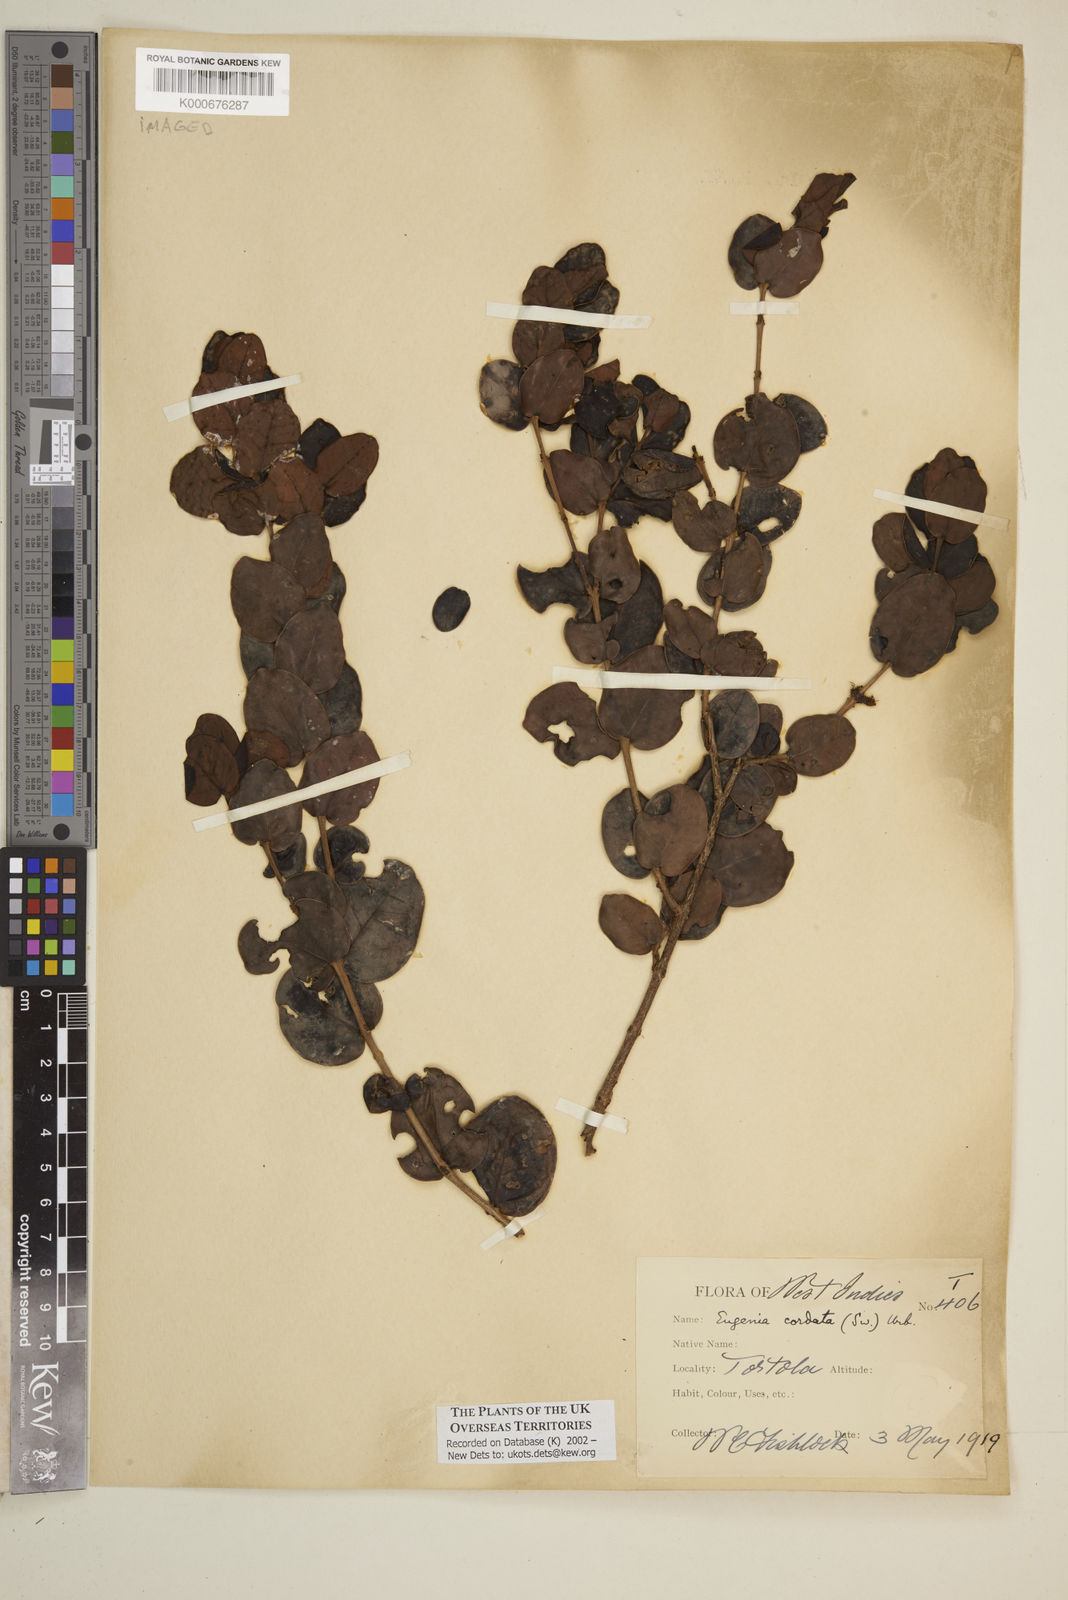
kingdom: Plantae
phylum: Tracheophyta
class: Magnoliopsida
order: Myrtales
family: Myrtaceae
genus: Eugenia
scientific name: Eugenia cordata
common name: Lathberry
